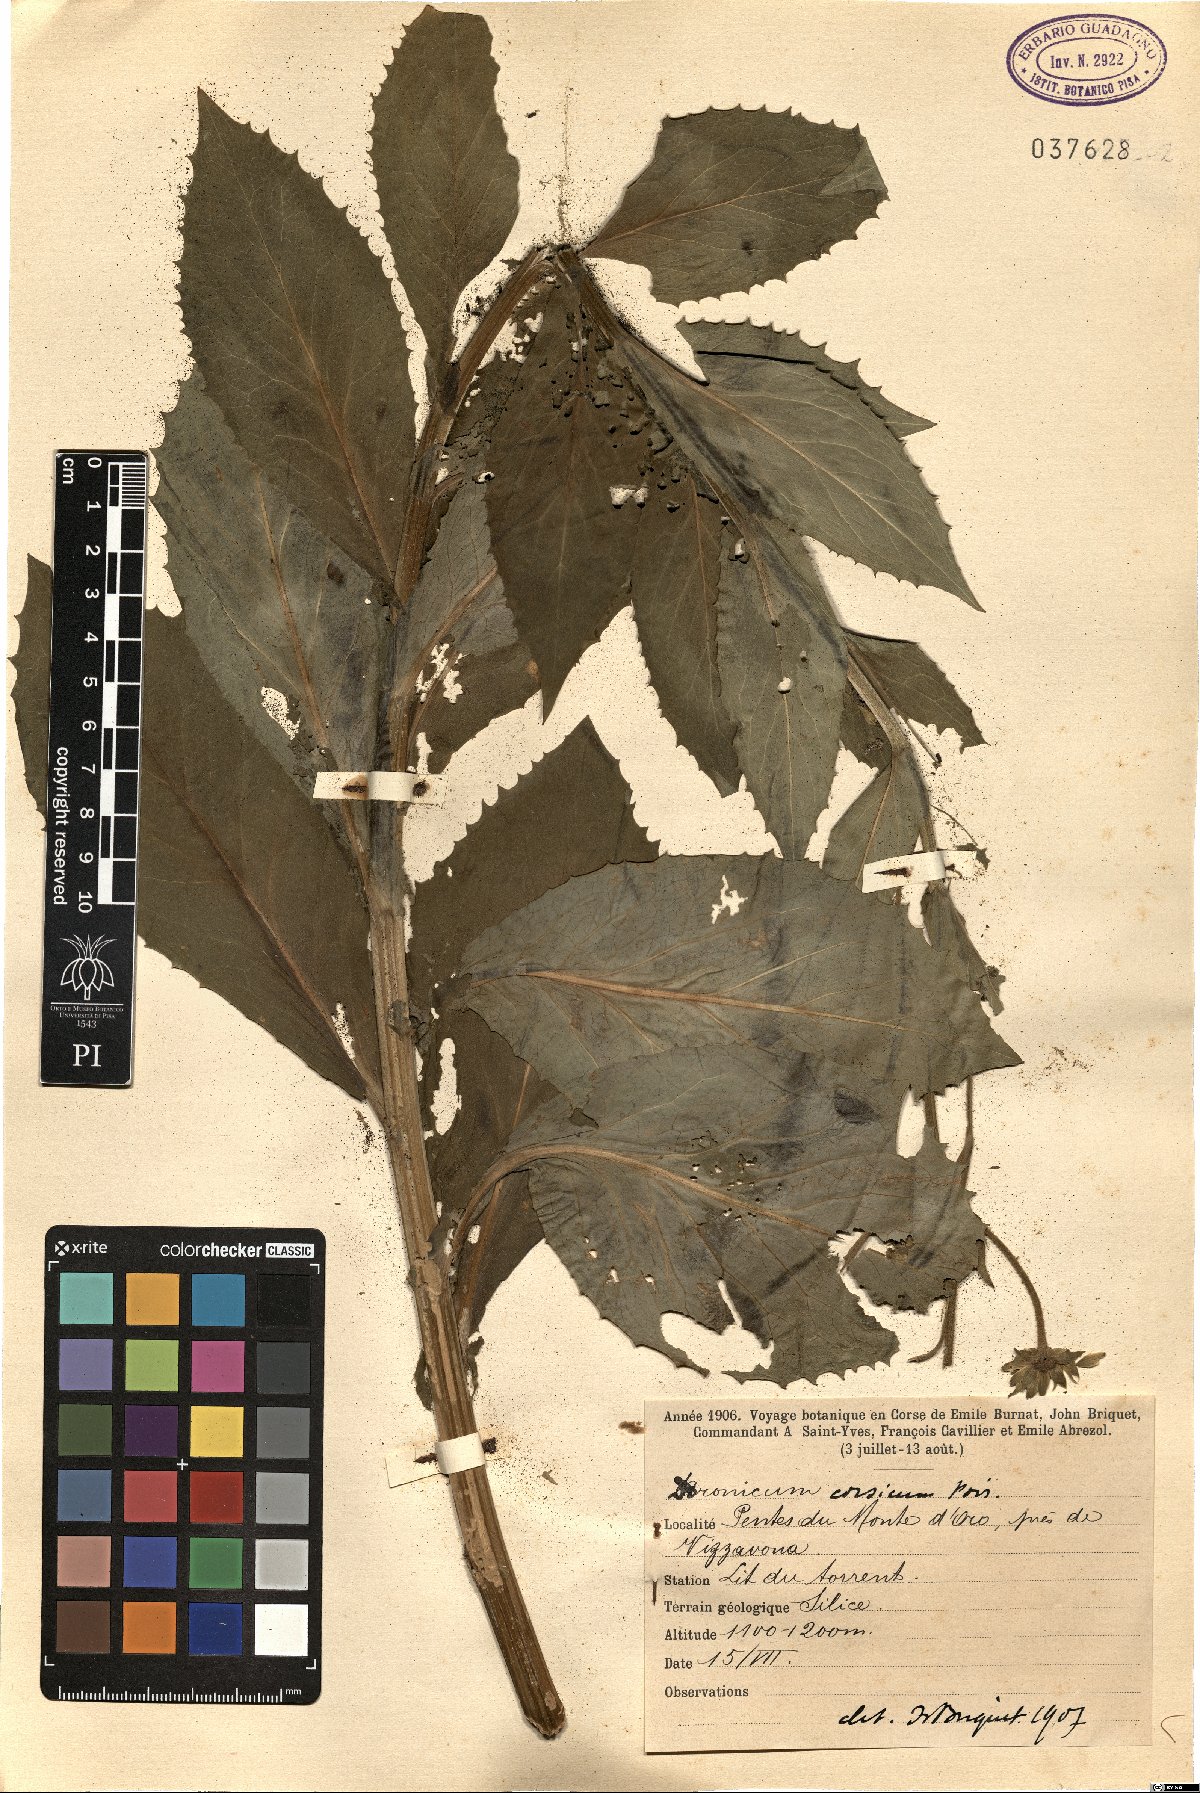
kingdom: Plantae
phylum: Tracheophyta
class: Magnoliopsida
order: Asterales
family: Asteraceae
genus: Doronicum
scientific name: Doronicum corsicum
